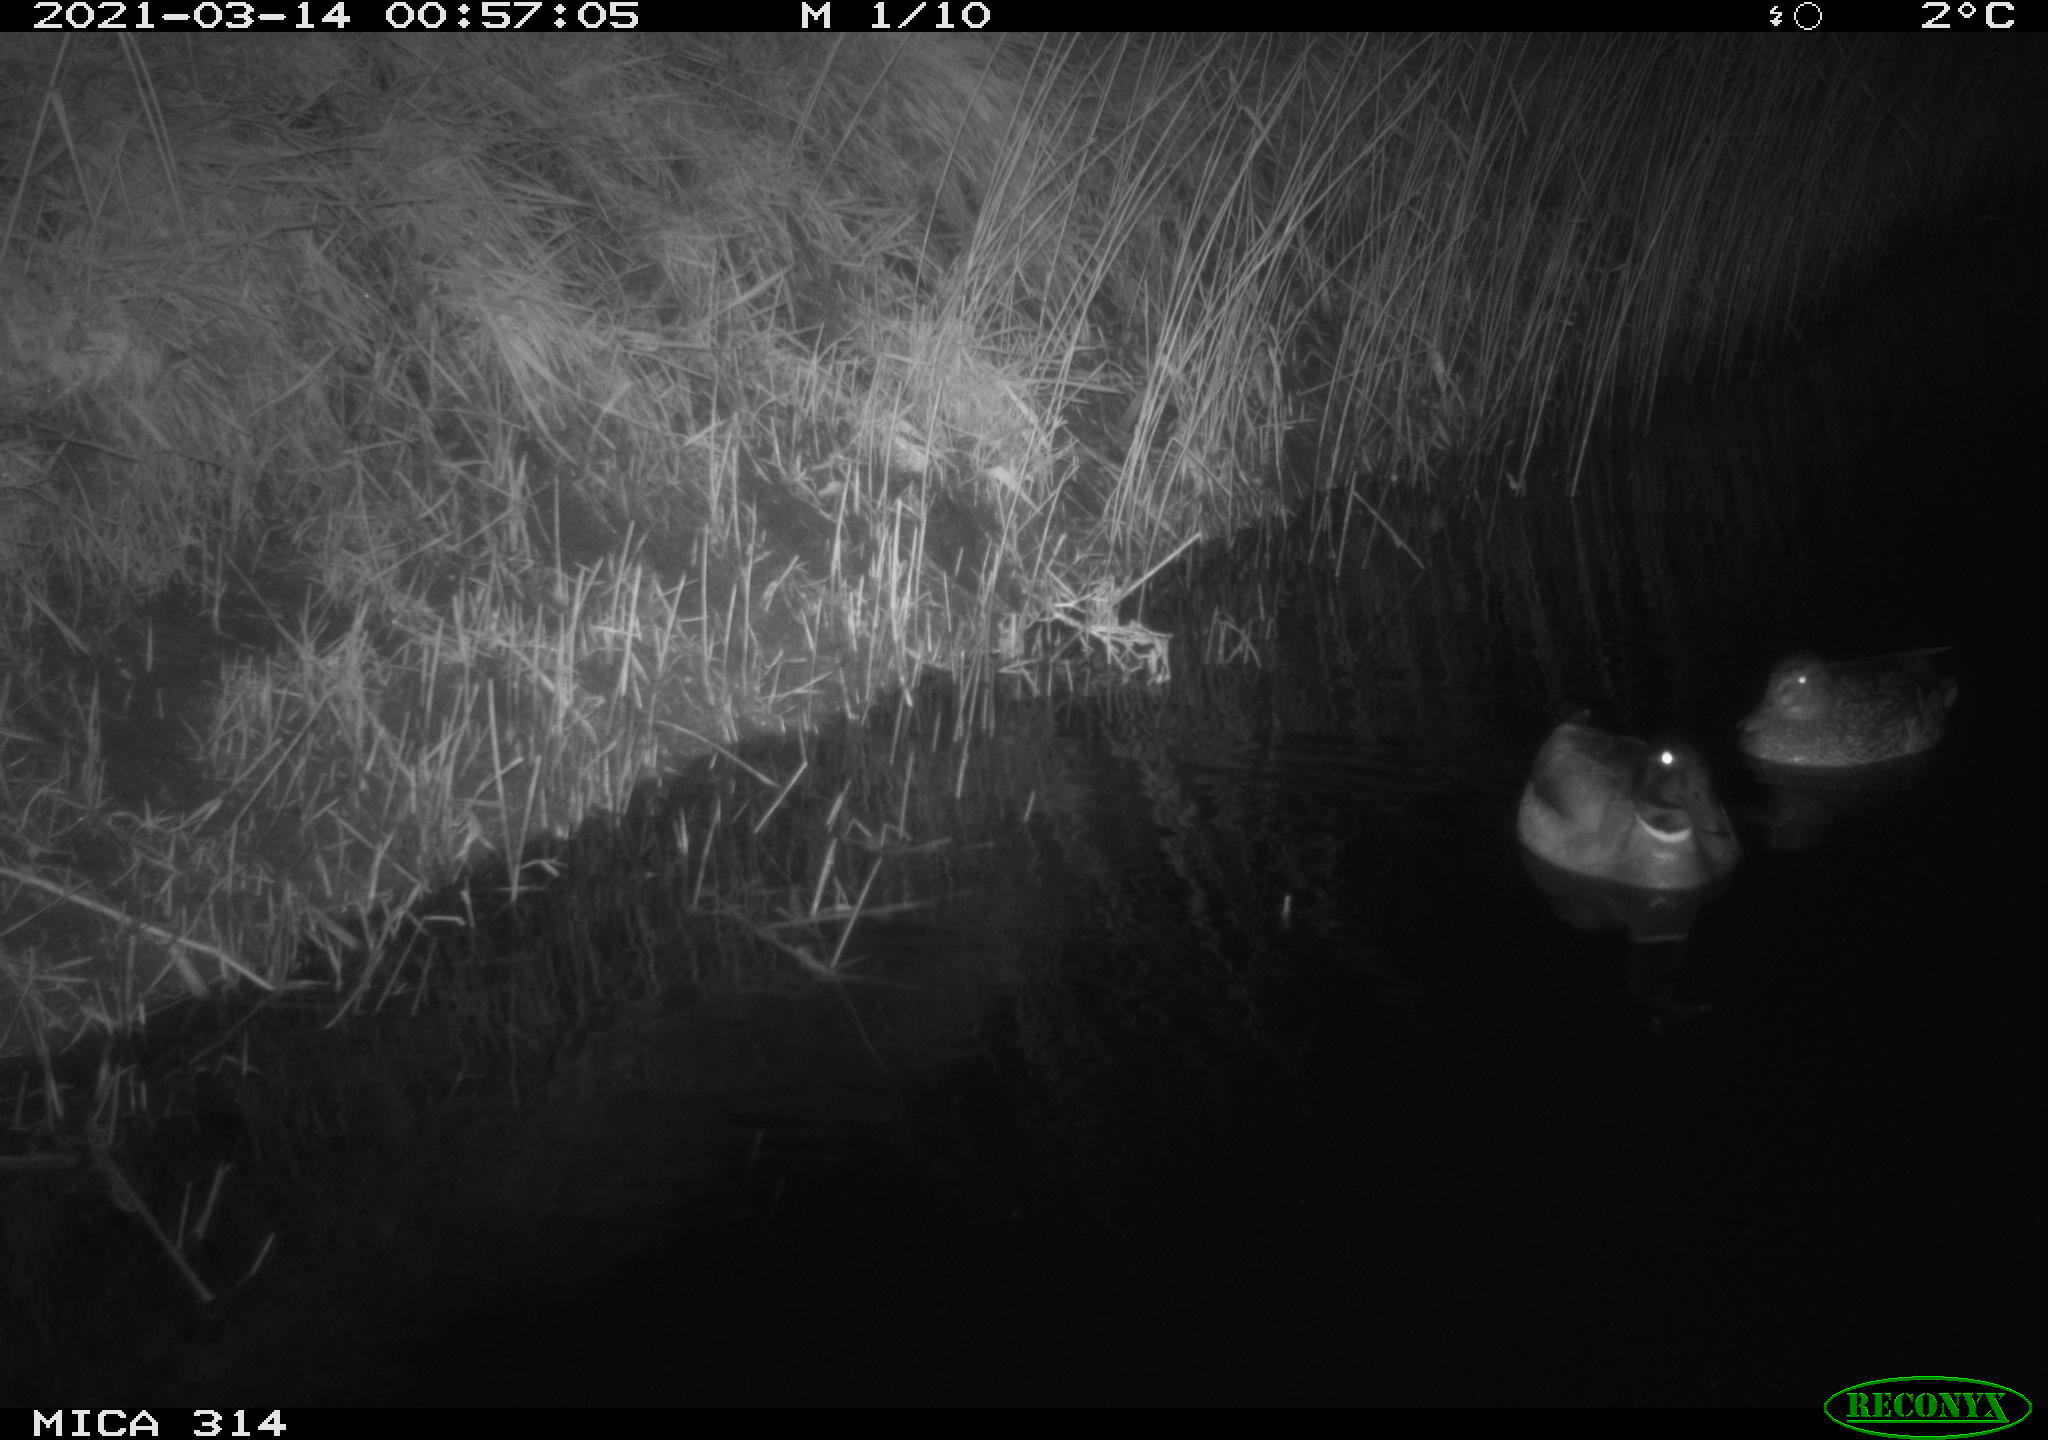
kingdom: Animalia
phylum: Chordata
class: Aves
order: Anseriformes
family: Anatidae
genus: Anas
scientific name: Anas platyrhynchos
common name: Mallard
